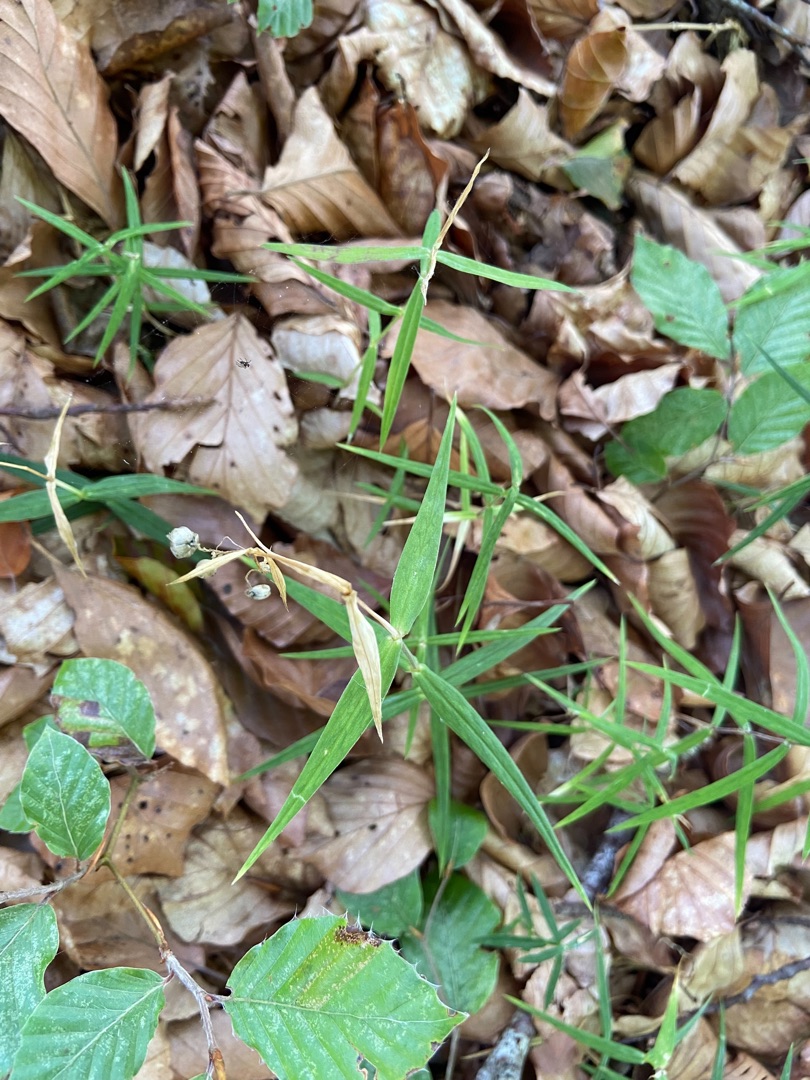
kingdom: Plantae
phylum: Tracheophyta
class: Magnoliopsida
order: Caryophyllales
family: Caryophyllaceae
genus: Rabelera
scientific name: Rabelera holostea
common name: Stor fladstjerne
